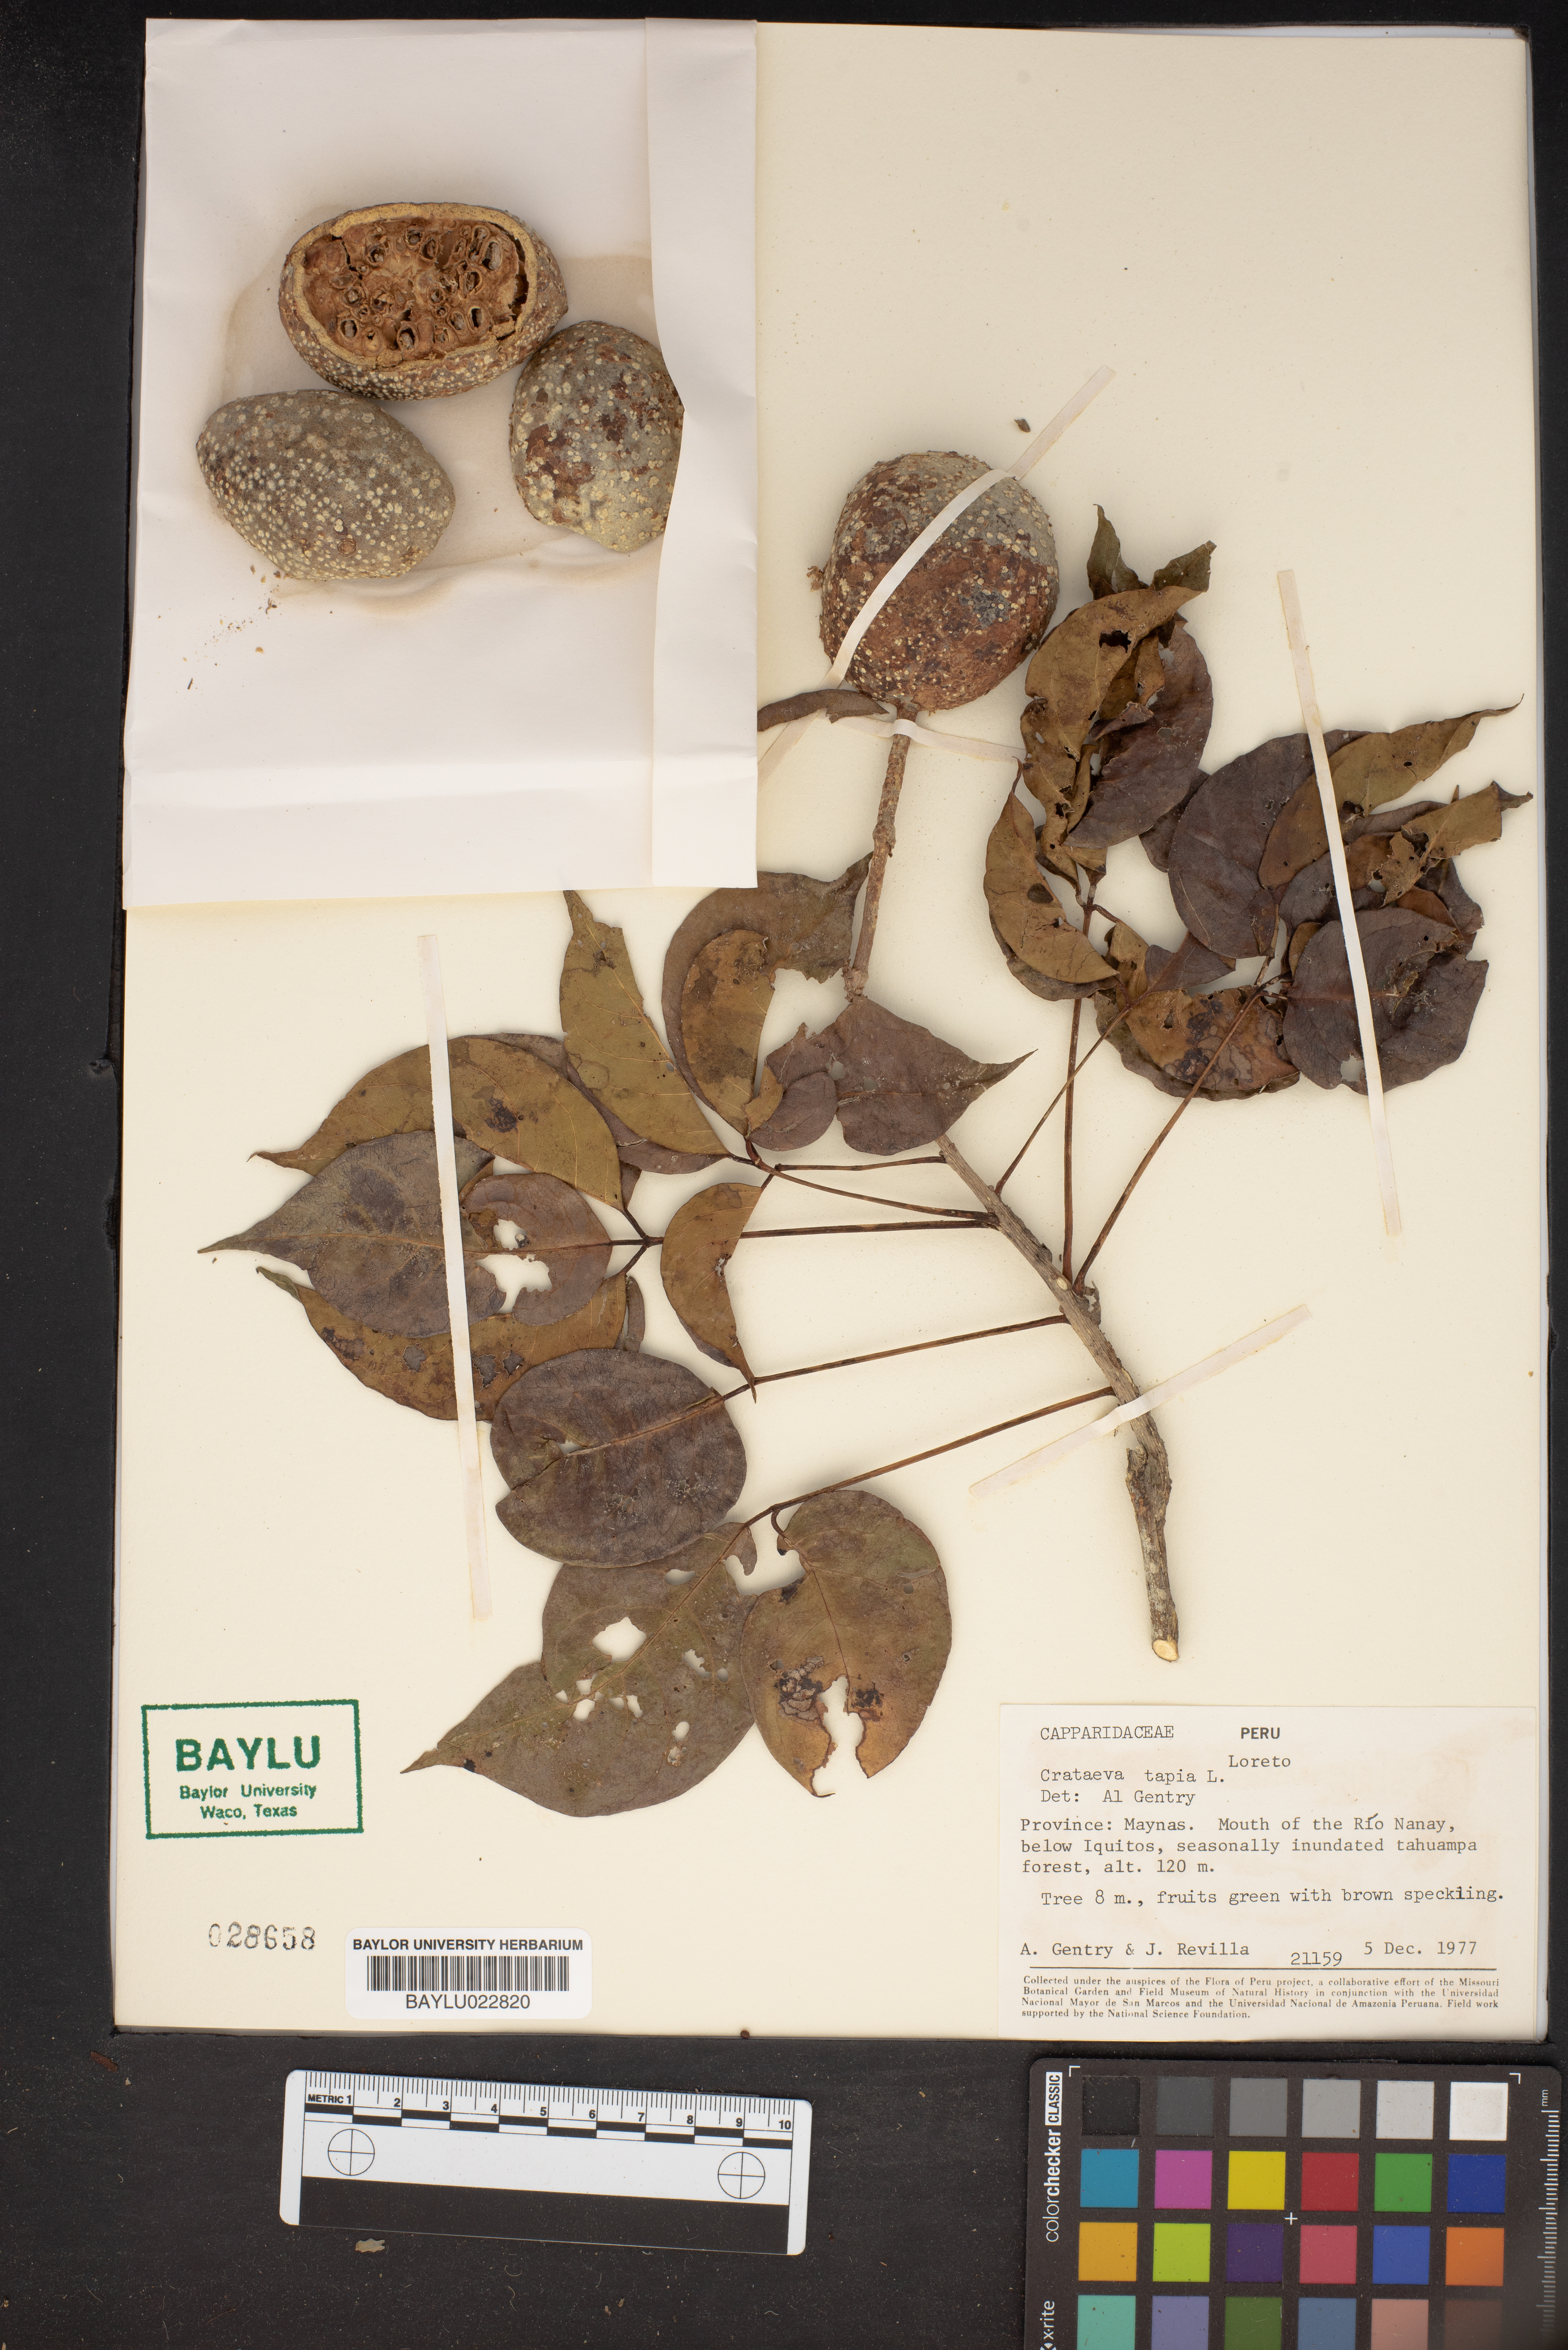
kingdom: Plantae
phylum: Tracheophyta
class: Magnoliopsida
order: Brassicales
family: Capparaceae
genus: Crateva
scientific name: Crateva tapia
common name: Garlic-pear
